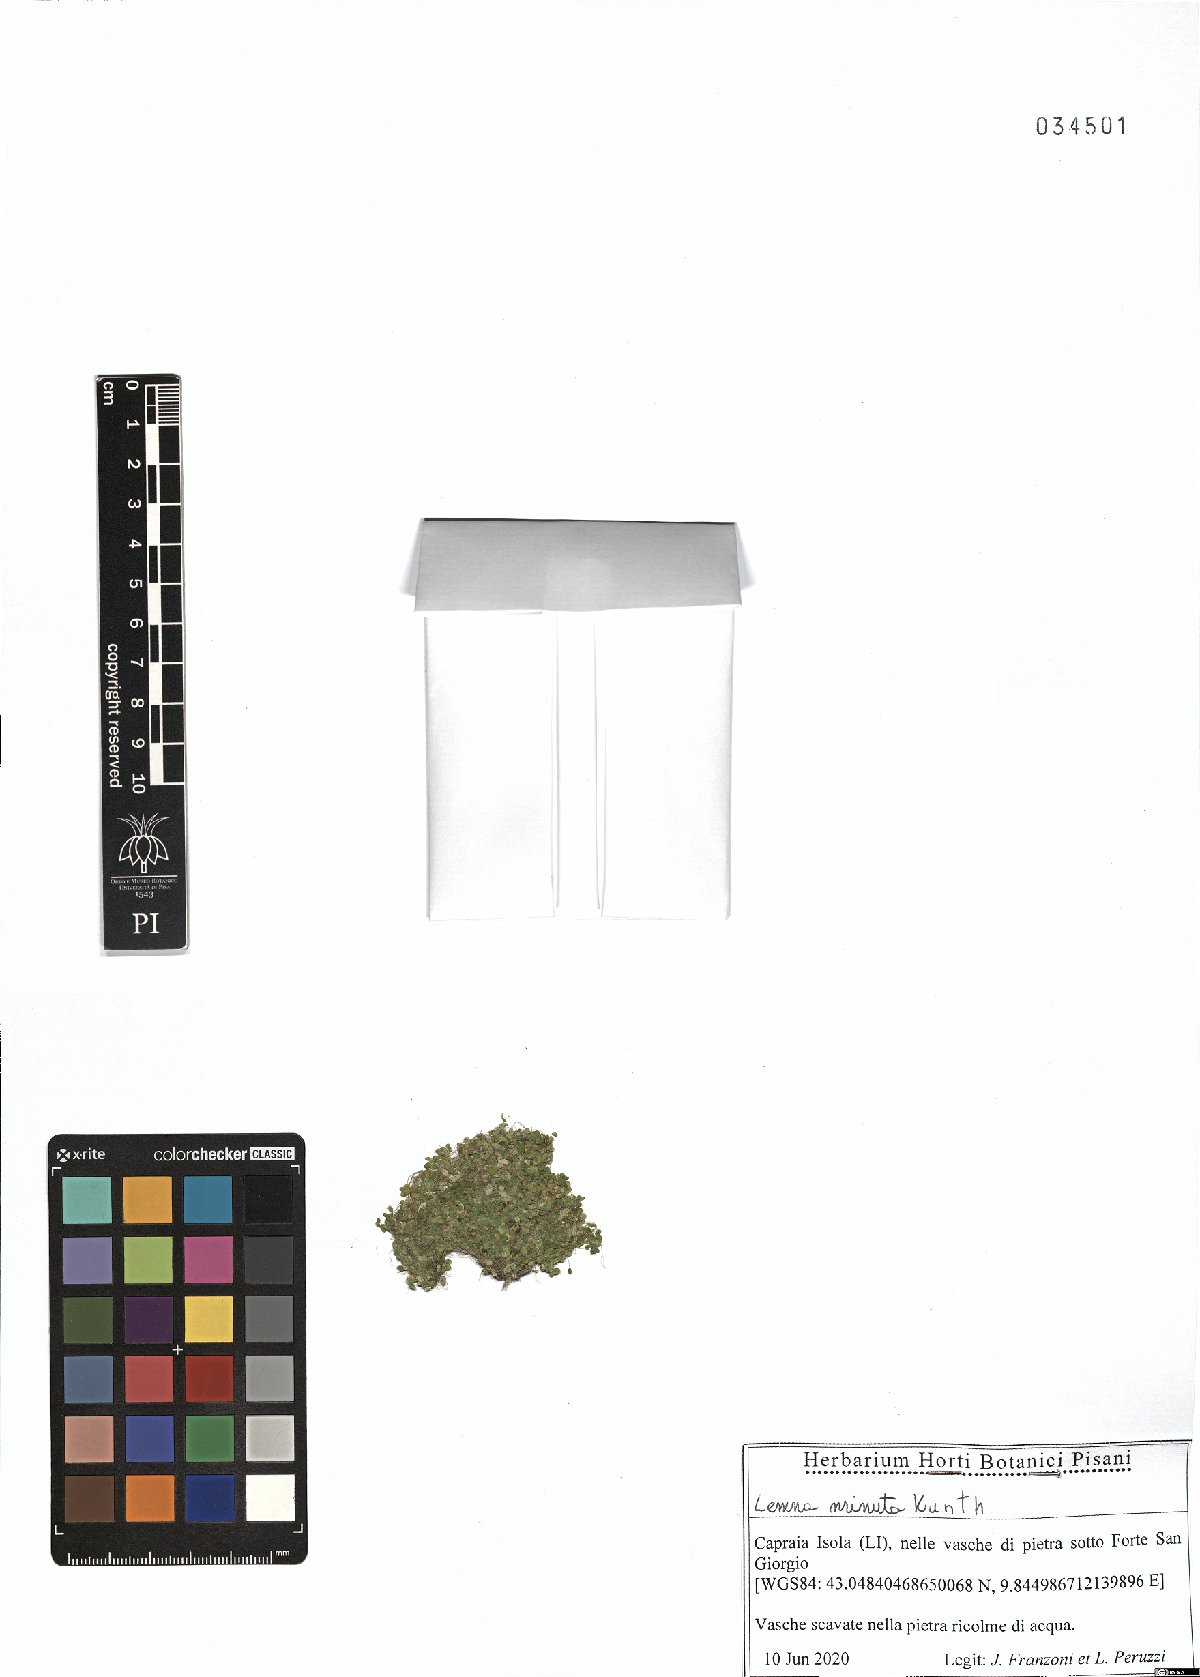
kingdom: Plantae
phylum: Tracheophyta
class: Liliopsida
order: Alismatales
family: Araceae
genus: Lemna
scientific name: Lemna minuta
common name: Least duckweed
